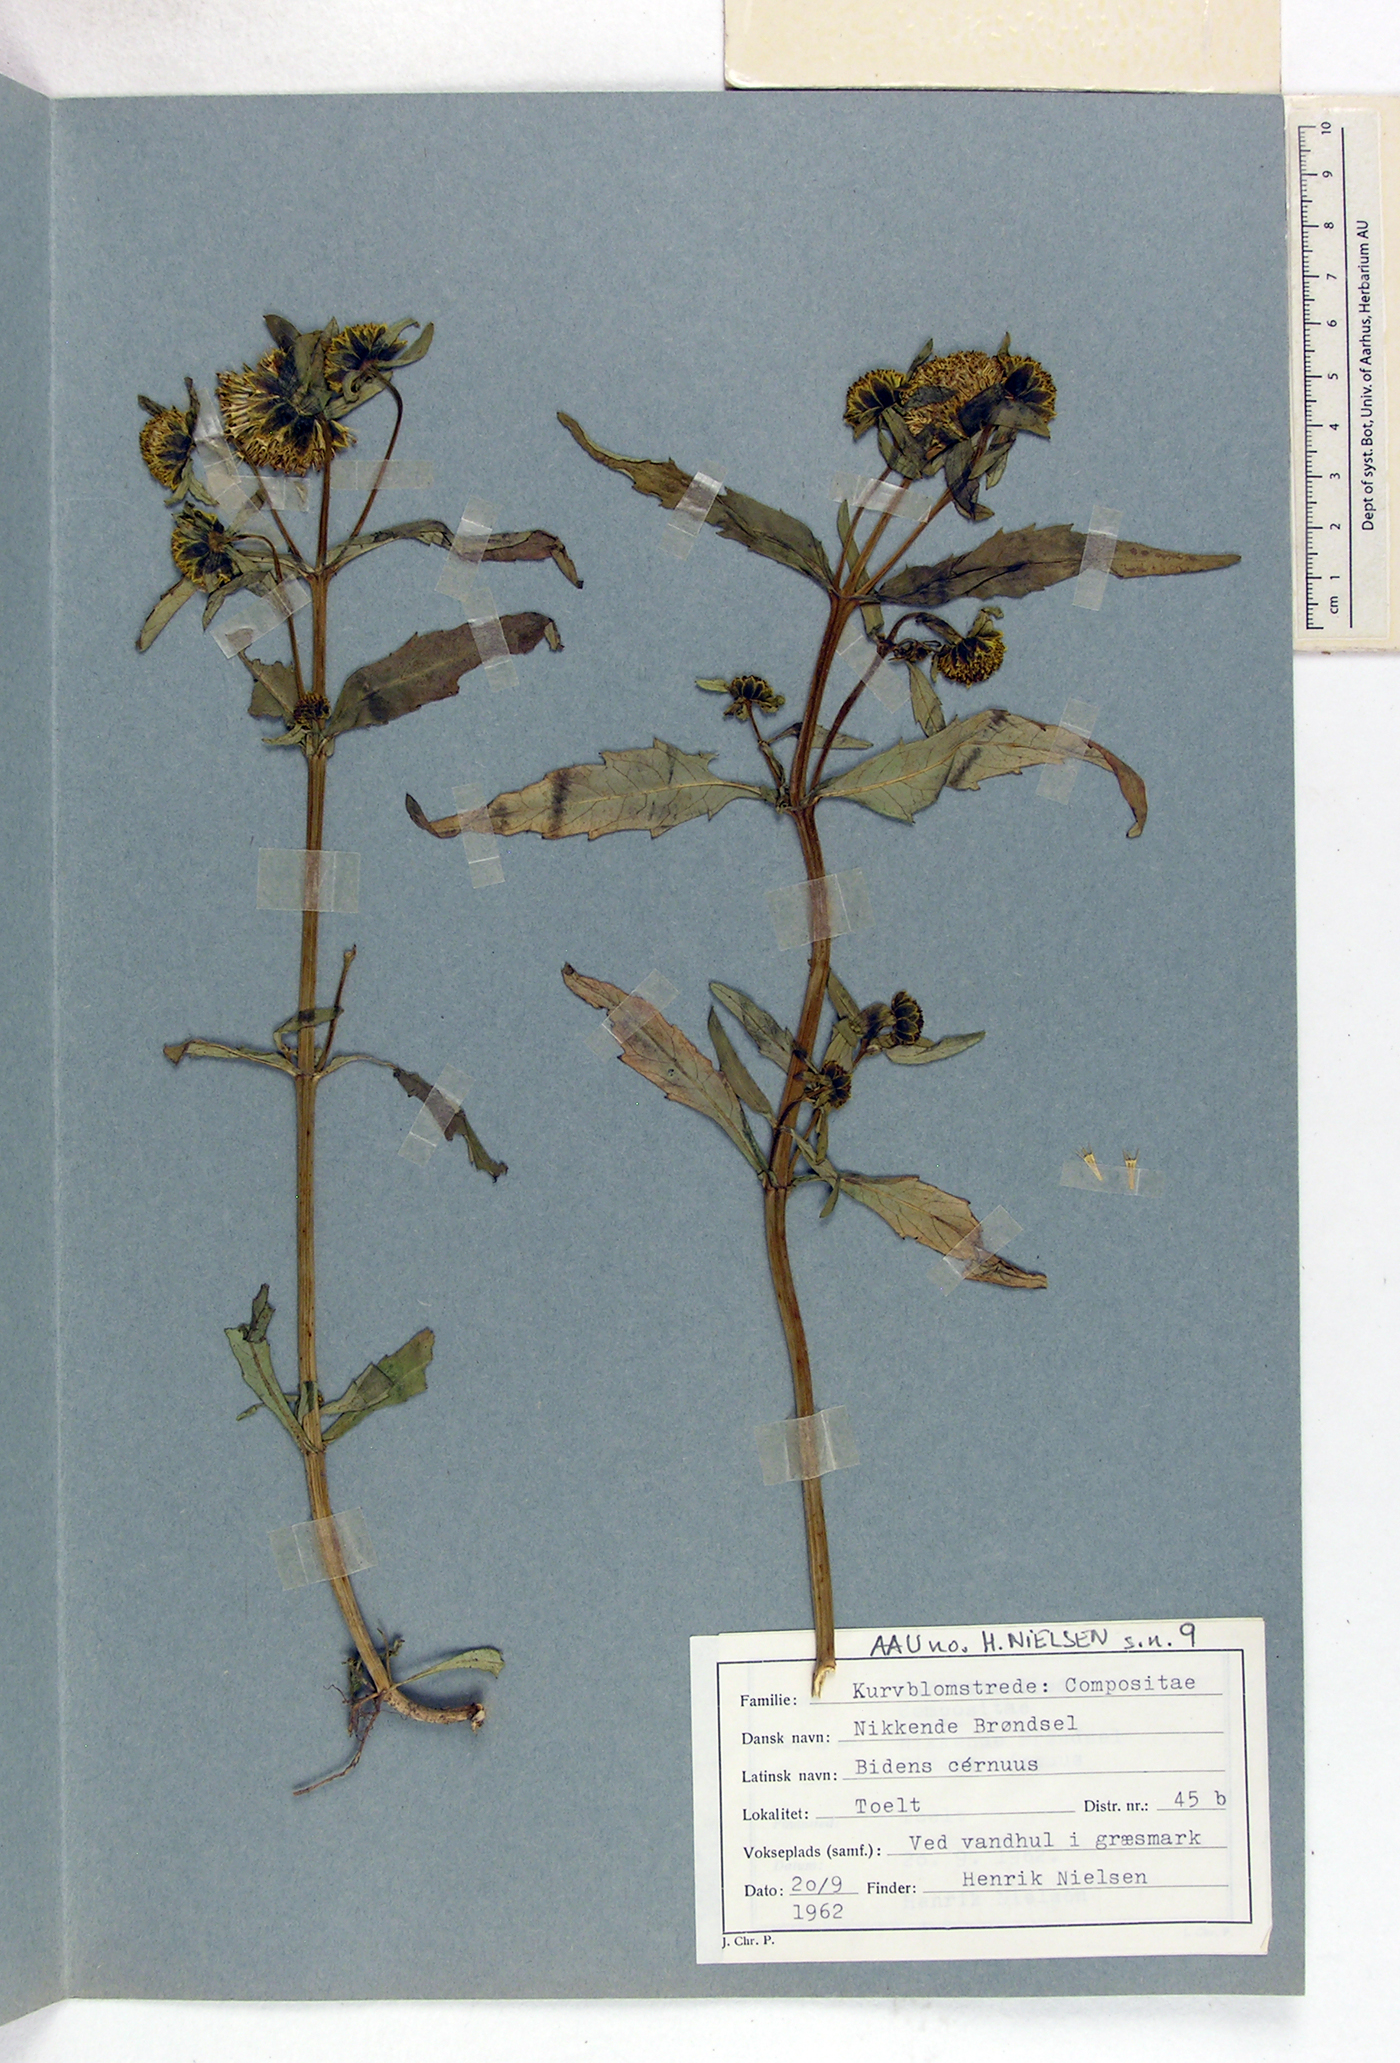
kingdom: Plantae
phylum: Tracheophyta
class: Magnoliopsida
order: Asterales
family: Asteraceae
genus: Bidens
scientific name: Bidens cernua
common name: Nodding bur-marigold
